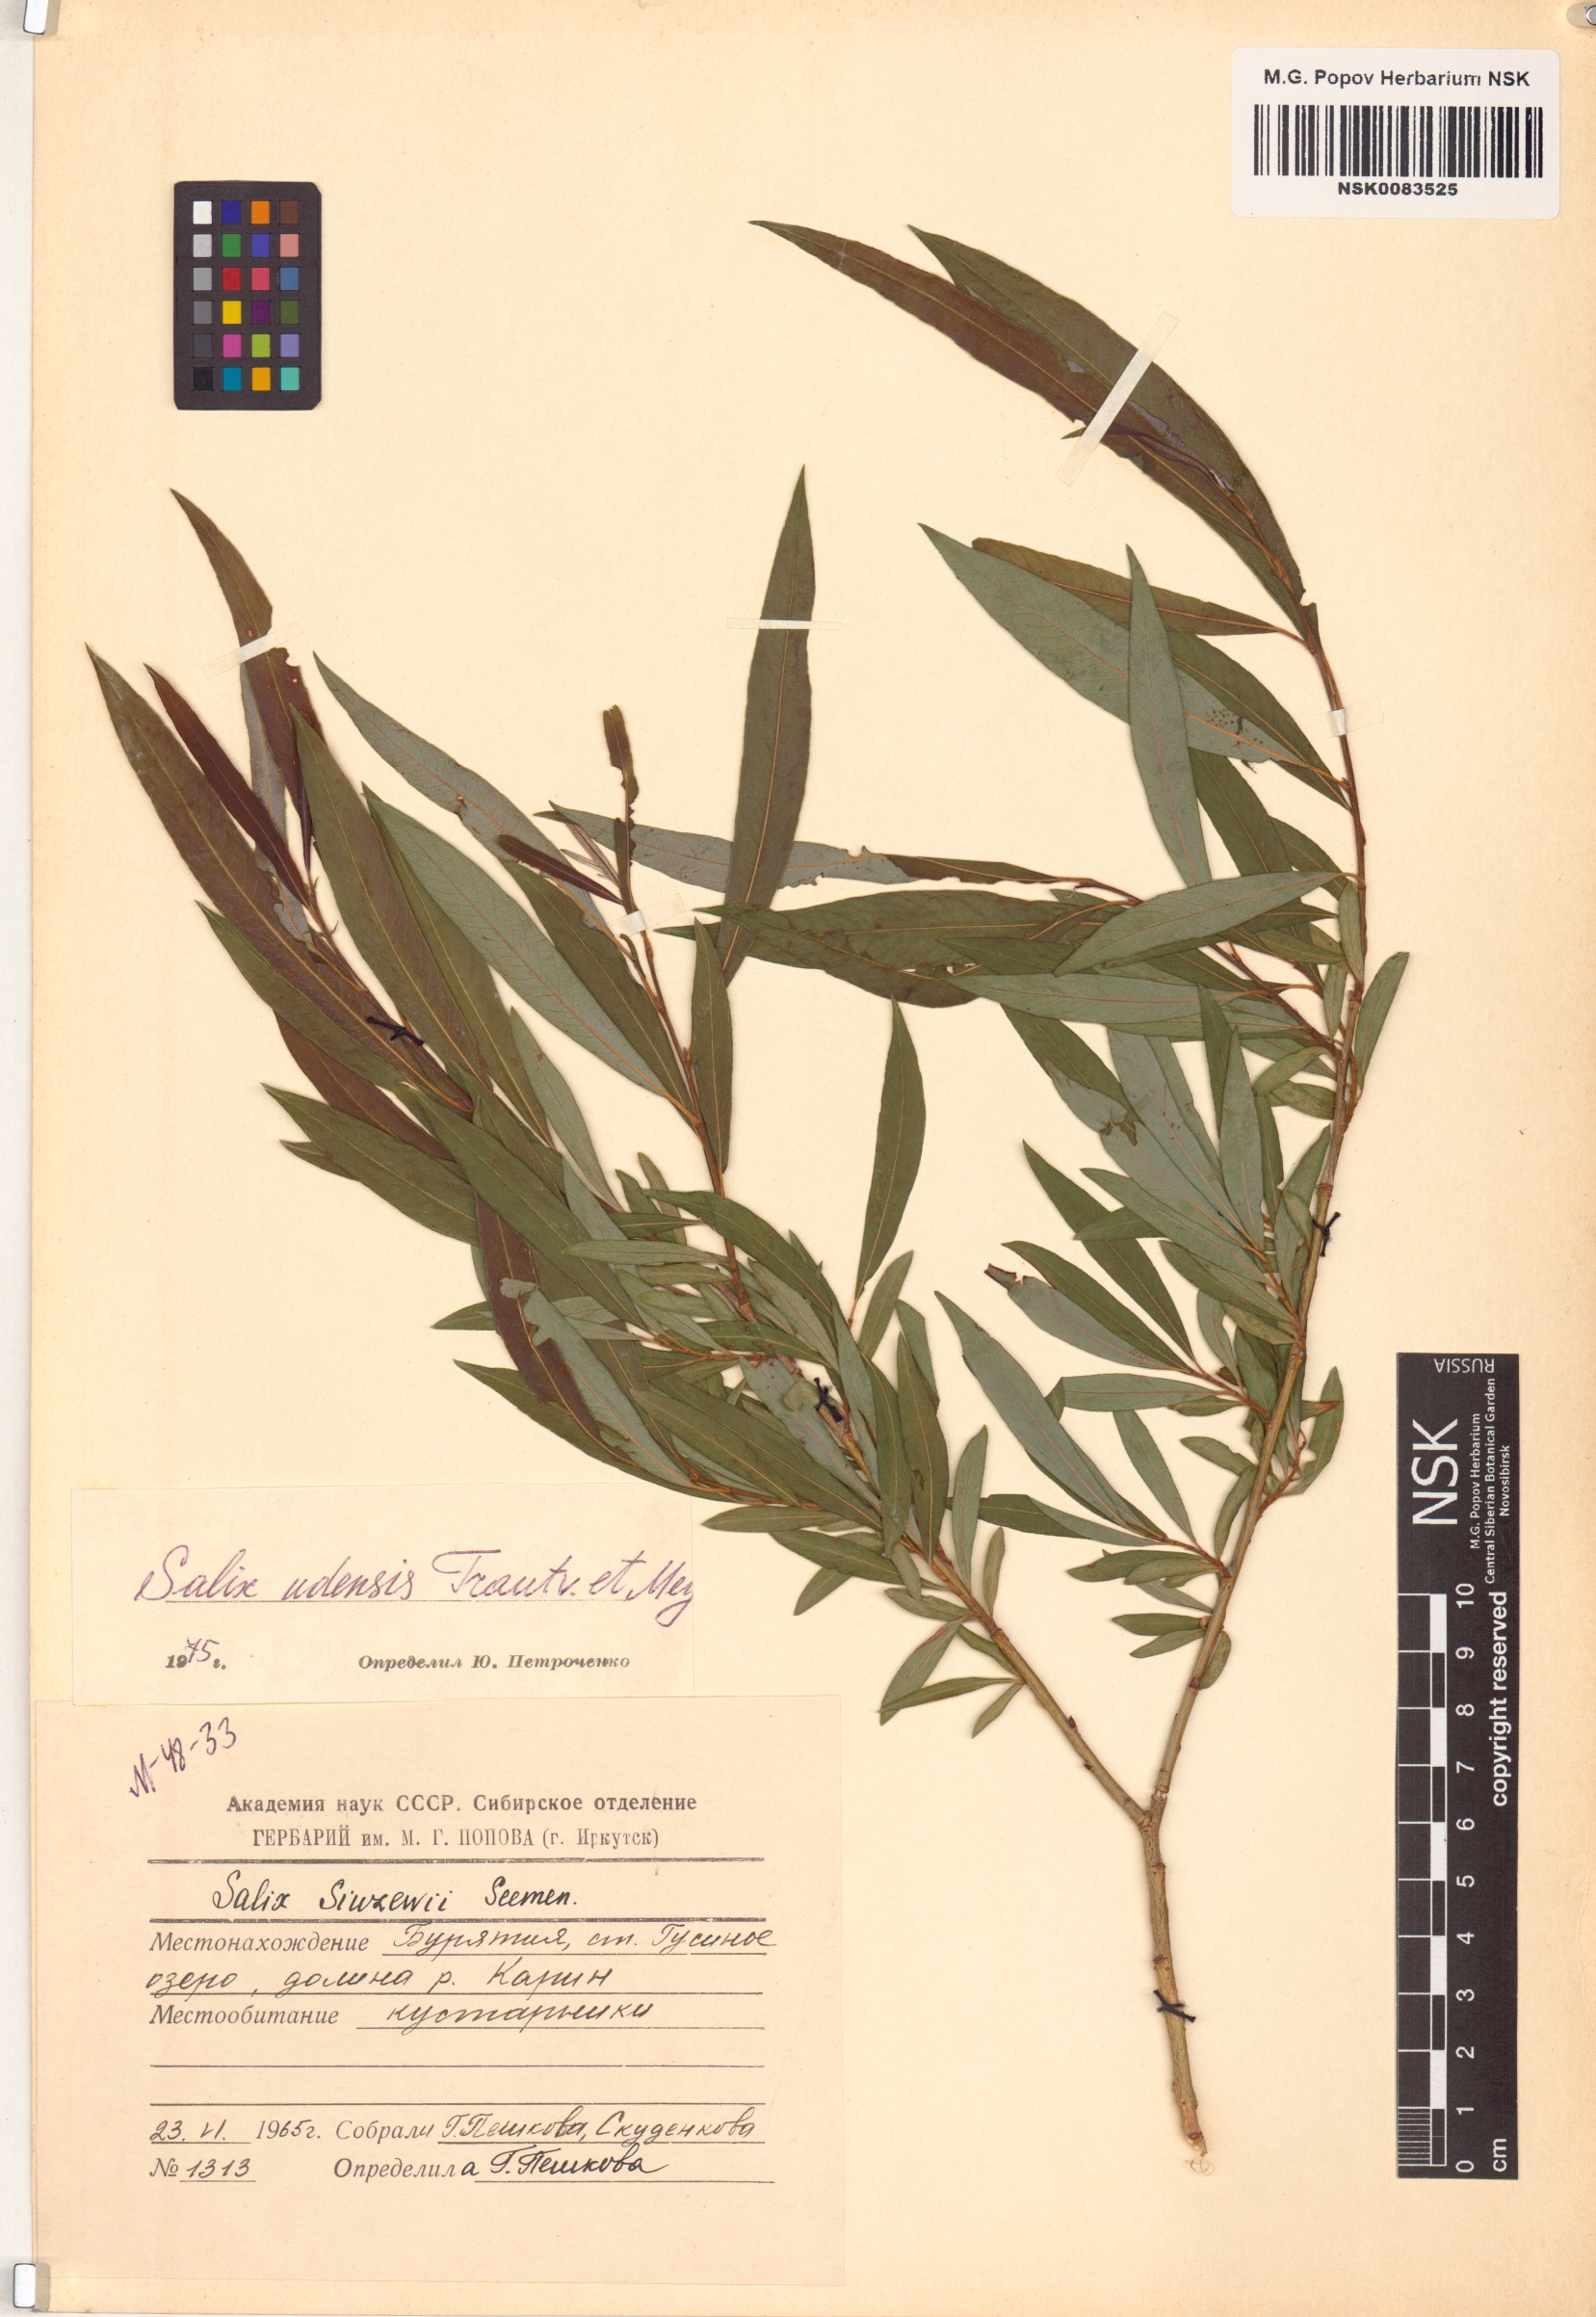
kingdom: Plantae
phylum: Tracheophyta
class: Magnoliopsida
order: Malpighiales
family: Salicaceae
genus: Salix
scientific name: Salix udensis
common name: Sachalin willow
